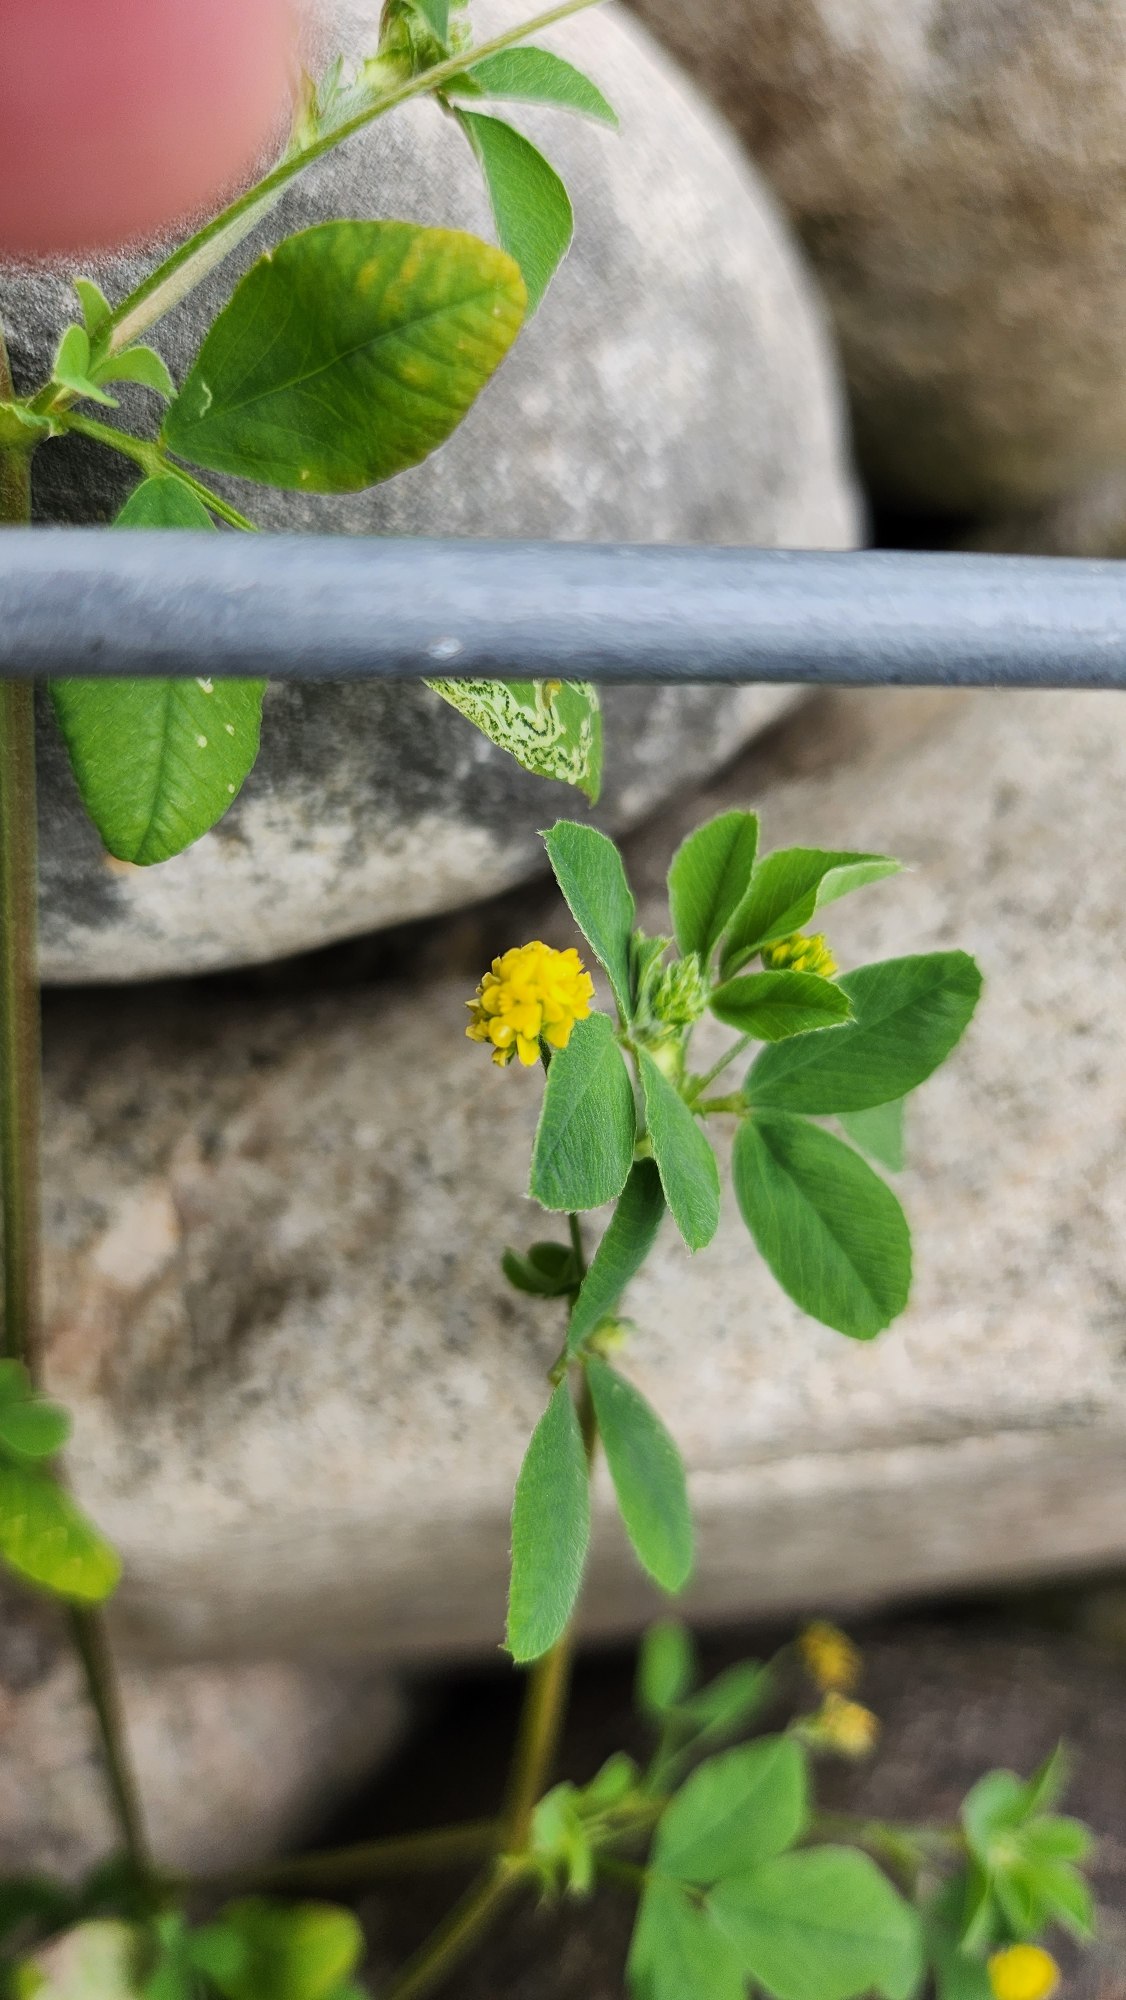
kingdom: Plantae
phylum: Tracheophyta
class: Magnoliopsida
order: Fabales
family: Fabaceae
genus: Medicago
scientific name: Medicago lupulina
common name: Humle-sneglebælg
